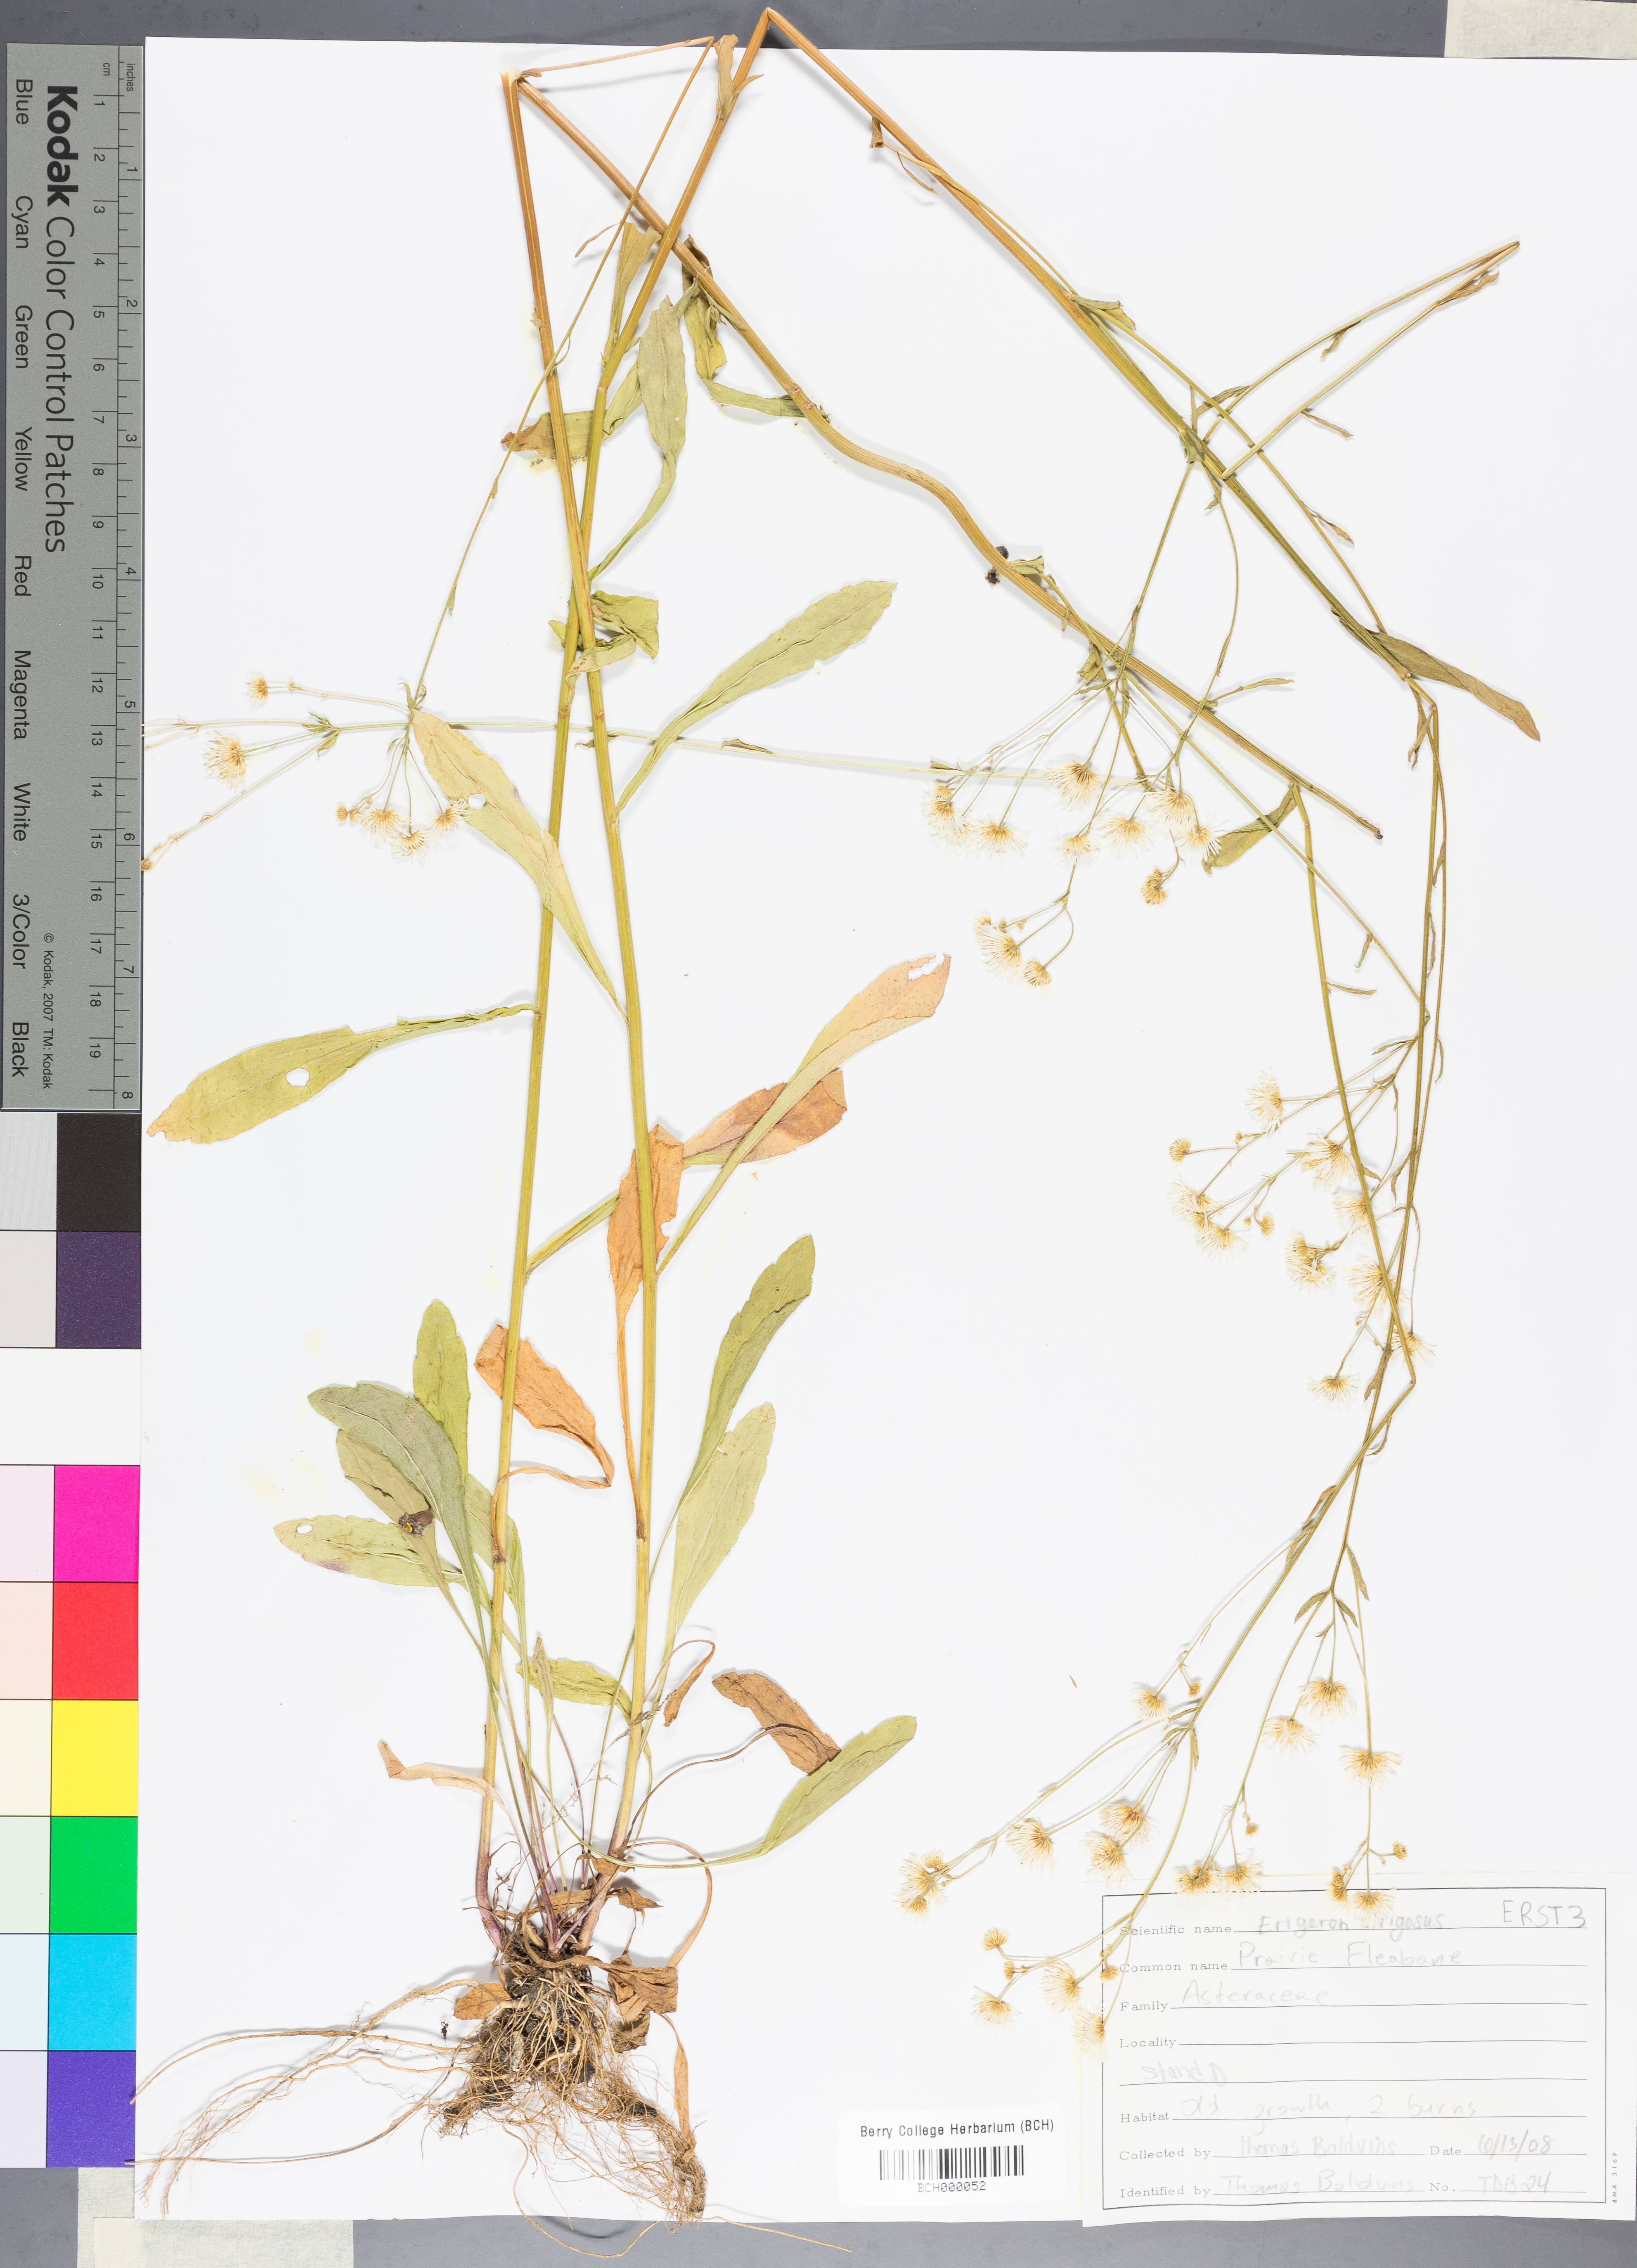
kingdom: Plantae
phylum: Tracheophyta
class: Magnoliopsida
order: Asterales
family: Asteraceae
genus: Erigeron
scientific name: Erigeron strigosus
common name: Common eastern fleabane
